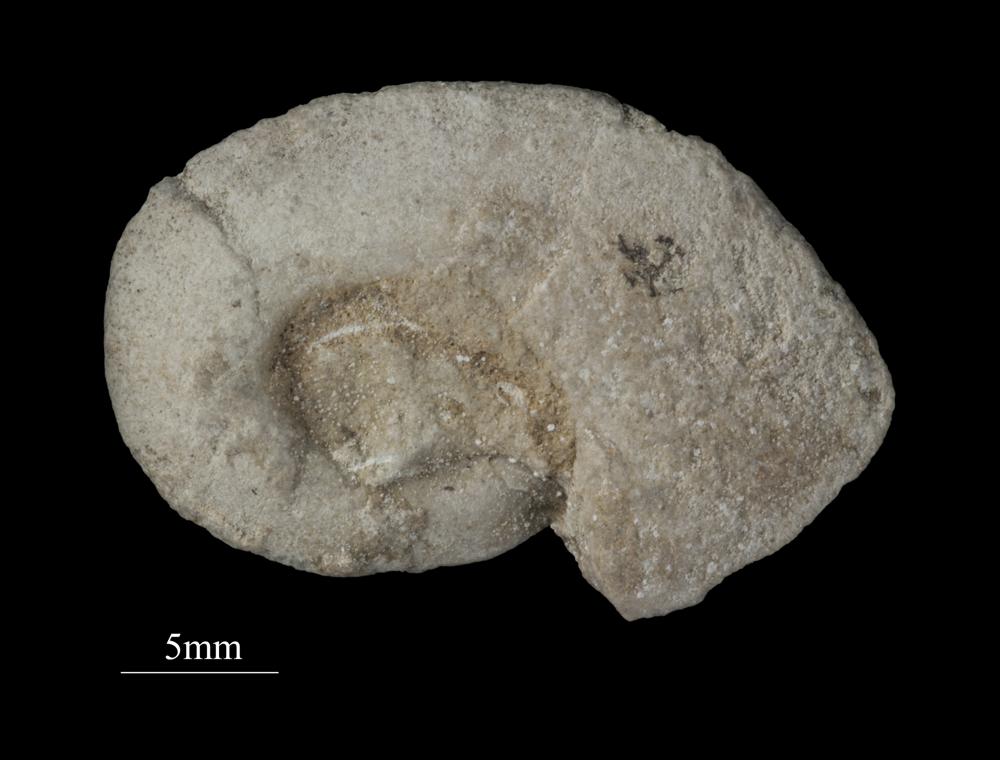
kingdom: Animalia
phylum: Mollusca
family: Tropidodiscidae
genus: Alaskodiscus
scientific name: Alaskodiscus Euomphalus planissimus
